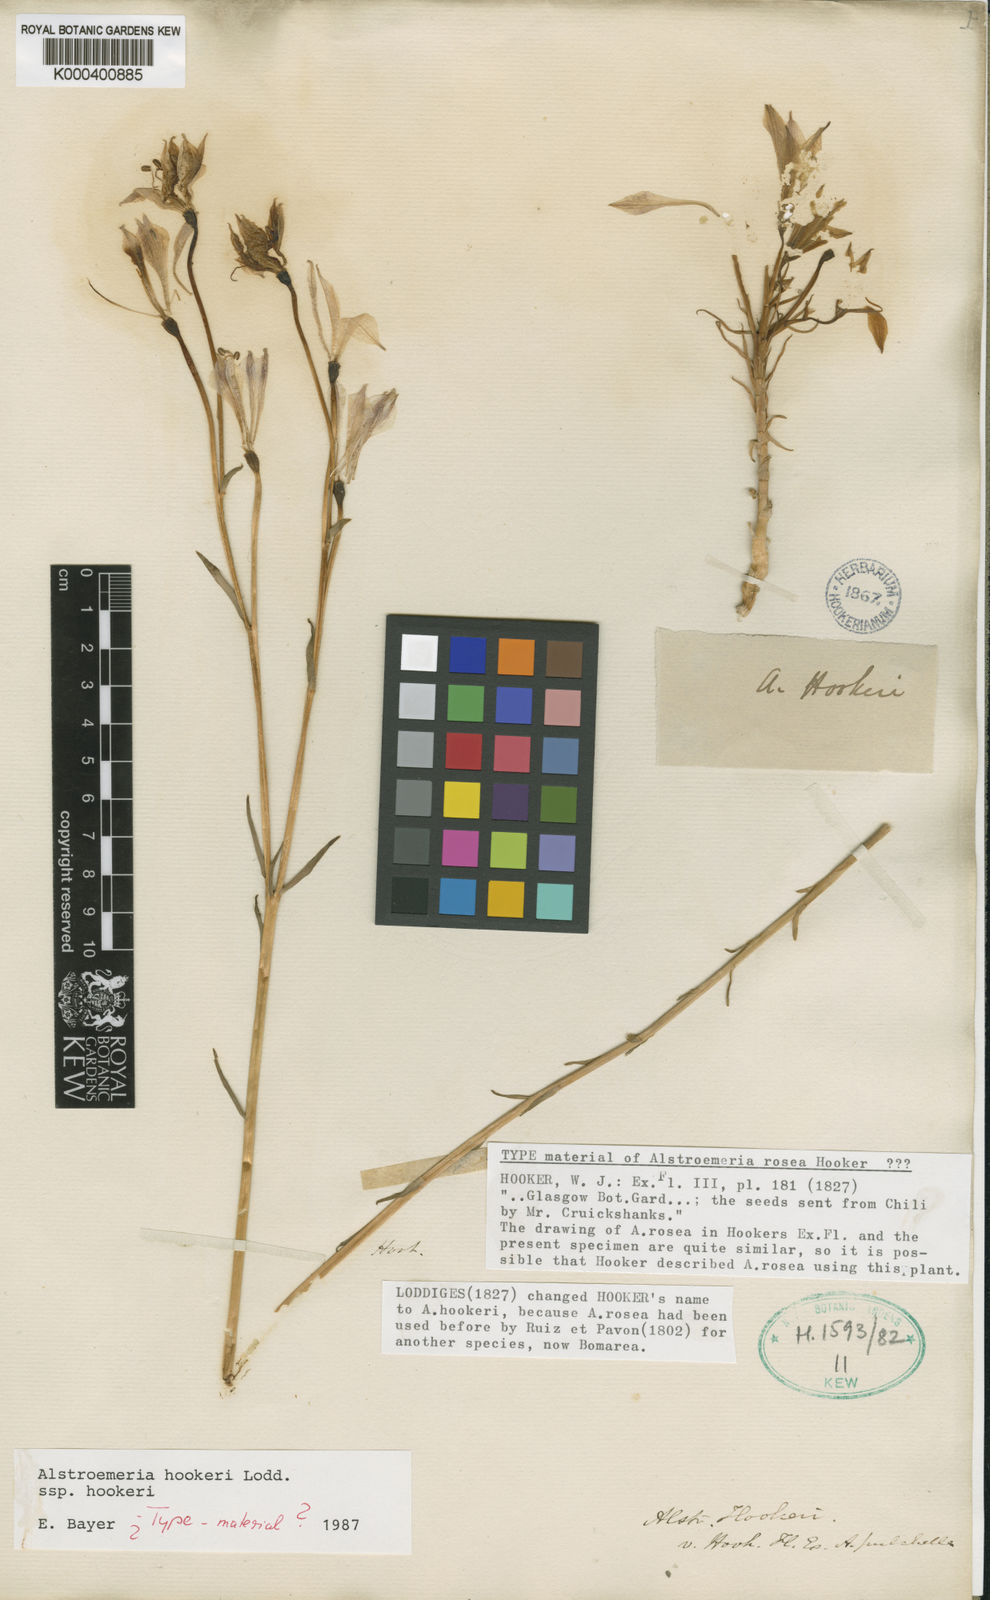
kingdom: Plantae
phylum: Tracheophyta
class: Liliopsida
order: Liliales
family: Alstroemeriaceae
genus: Alstroemeria
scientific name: Alstroemeria hookeri
